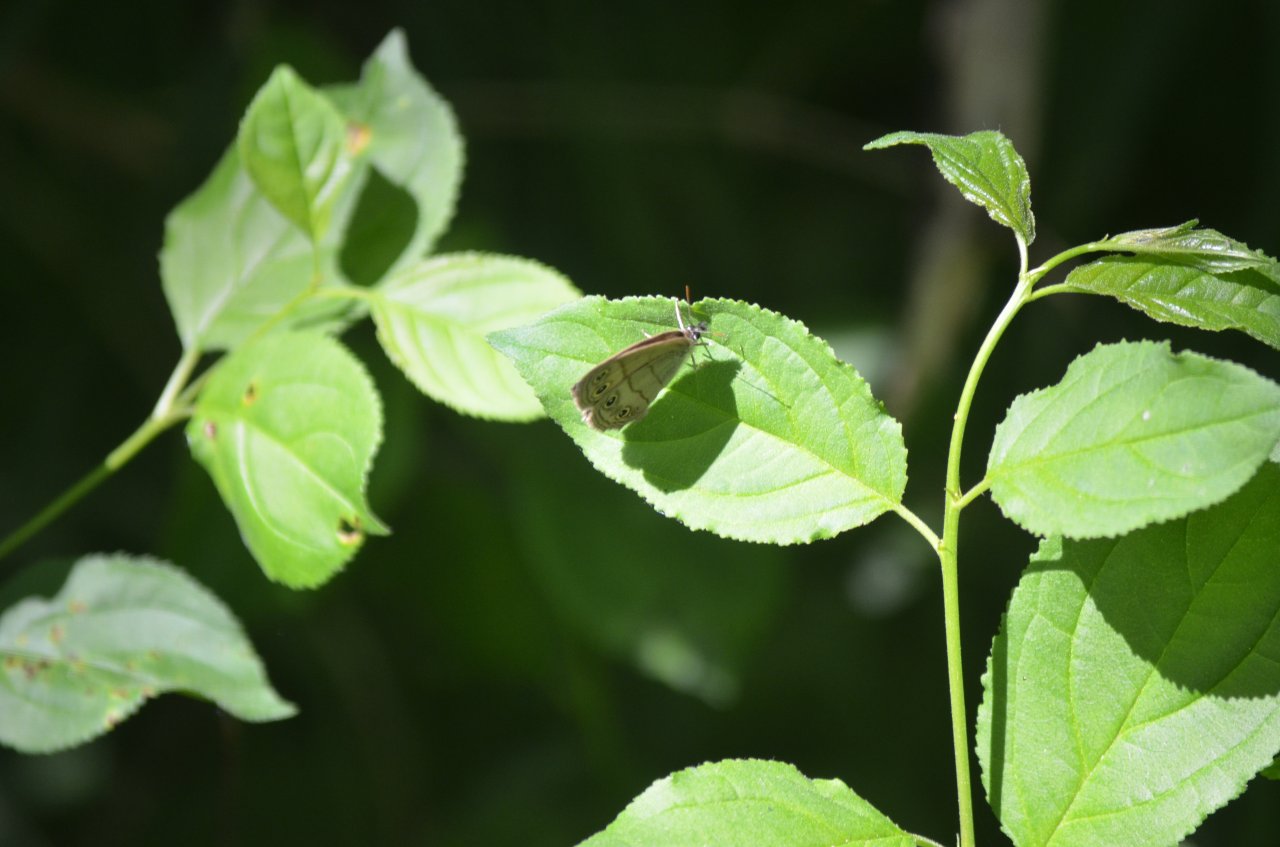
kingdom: Animalia
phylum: Arthropoda
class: Insecta
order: Lepidoptera
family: Nymphalidae
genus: Euptychia
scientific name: Euptychia cymela
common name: Little Wood Satyr
